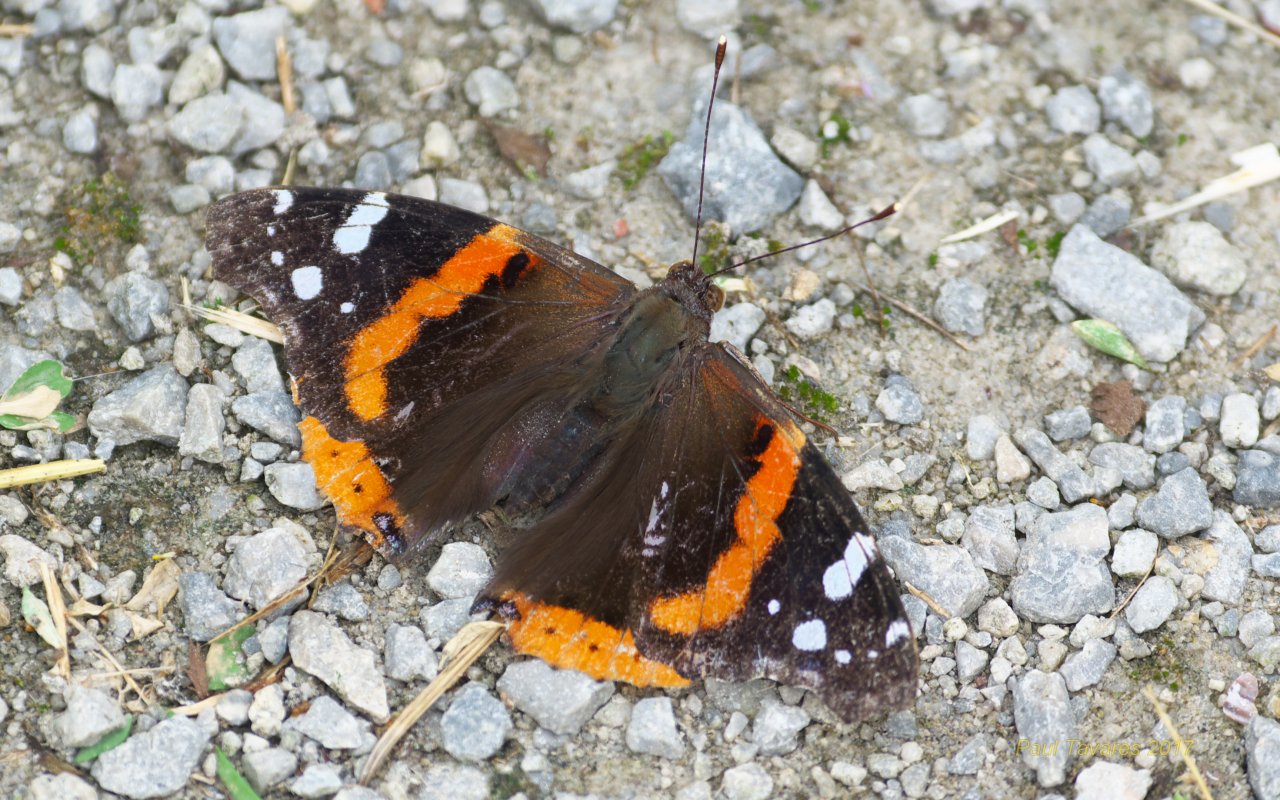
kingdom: Animalia
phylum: Arthropoda
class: Insecta
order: Lepidoptera
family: Nymphalidae
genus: Vanessa
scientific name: Vanessa atalanta
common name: Red Admiral
